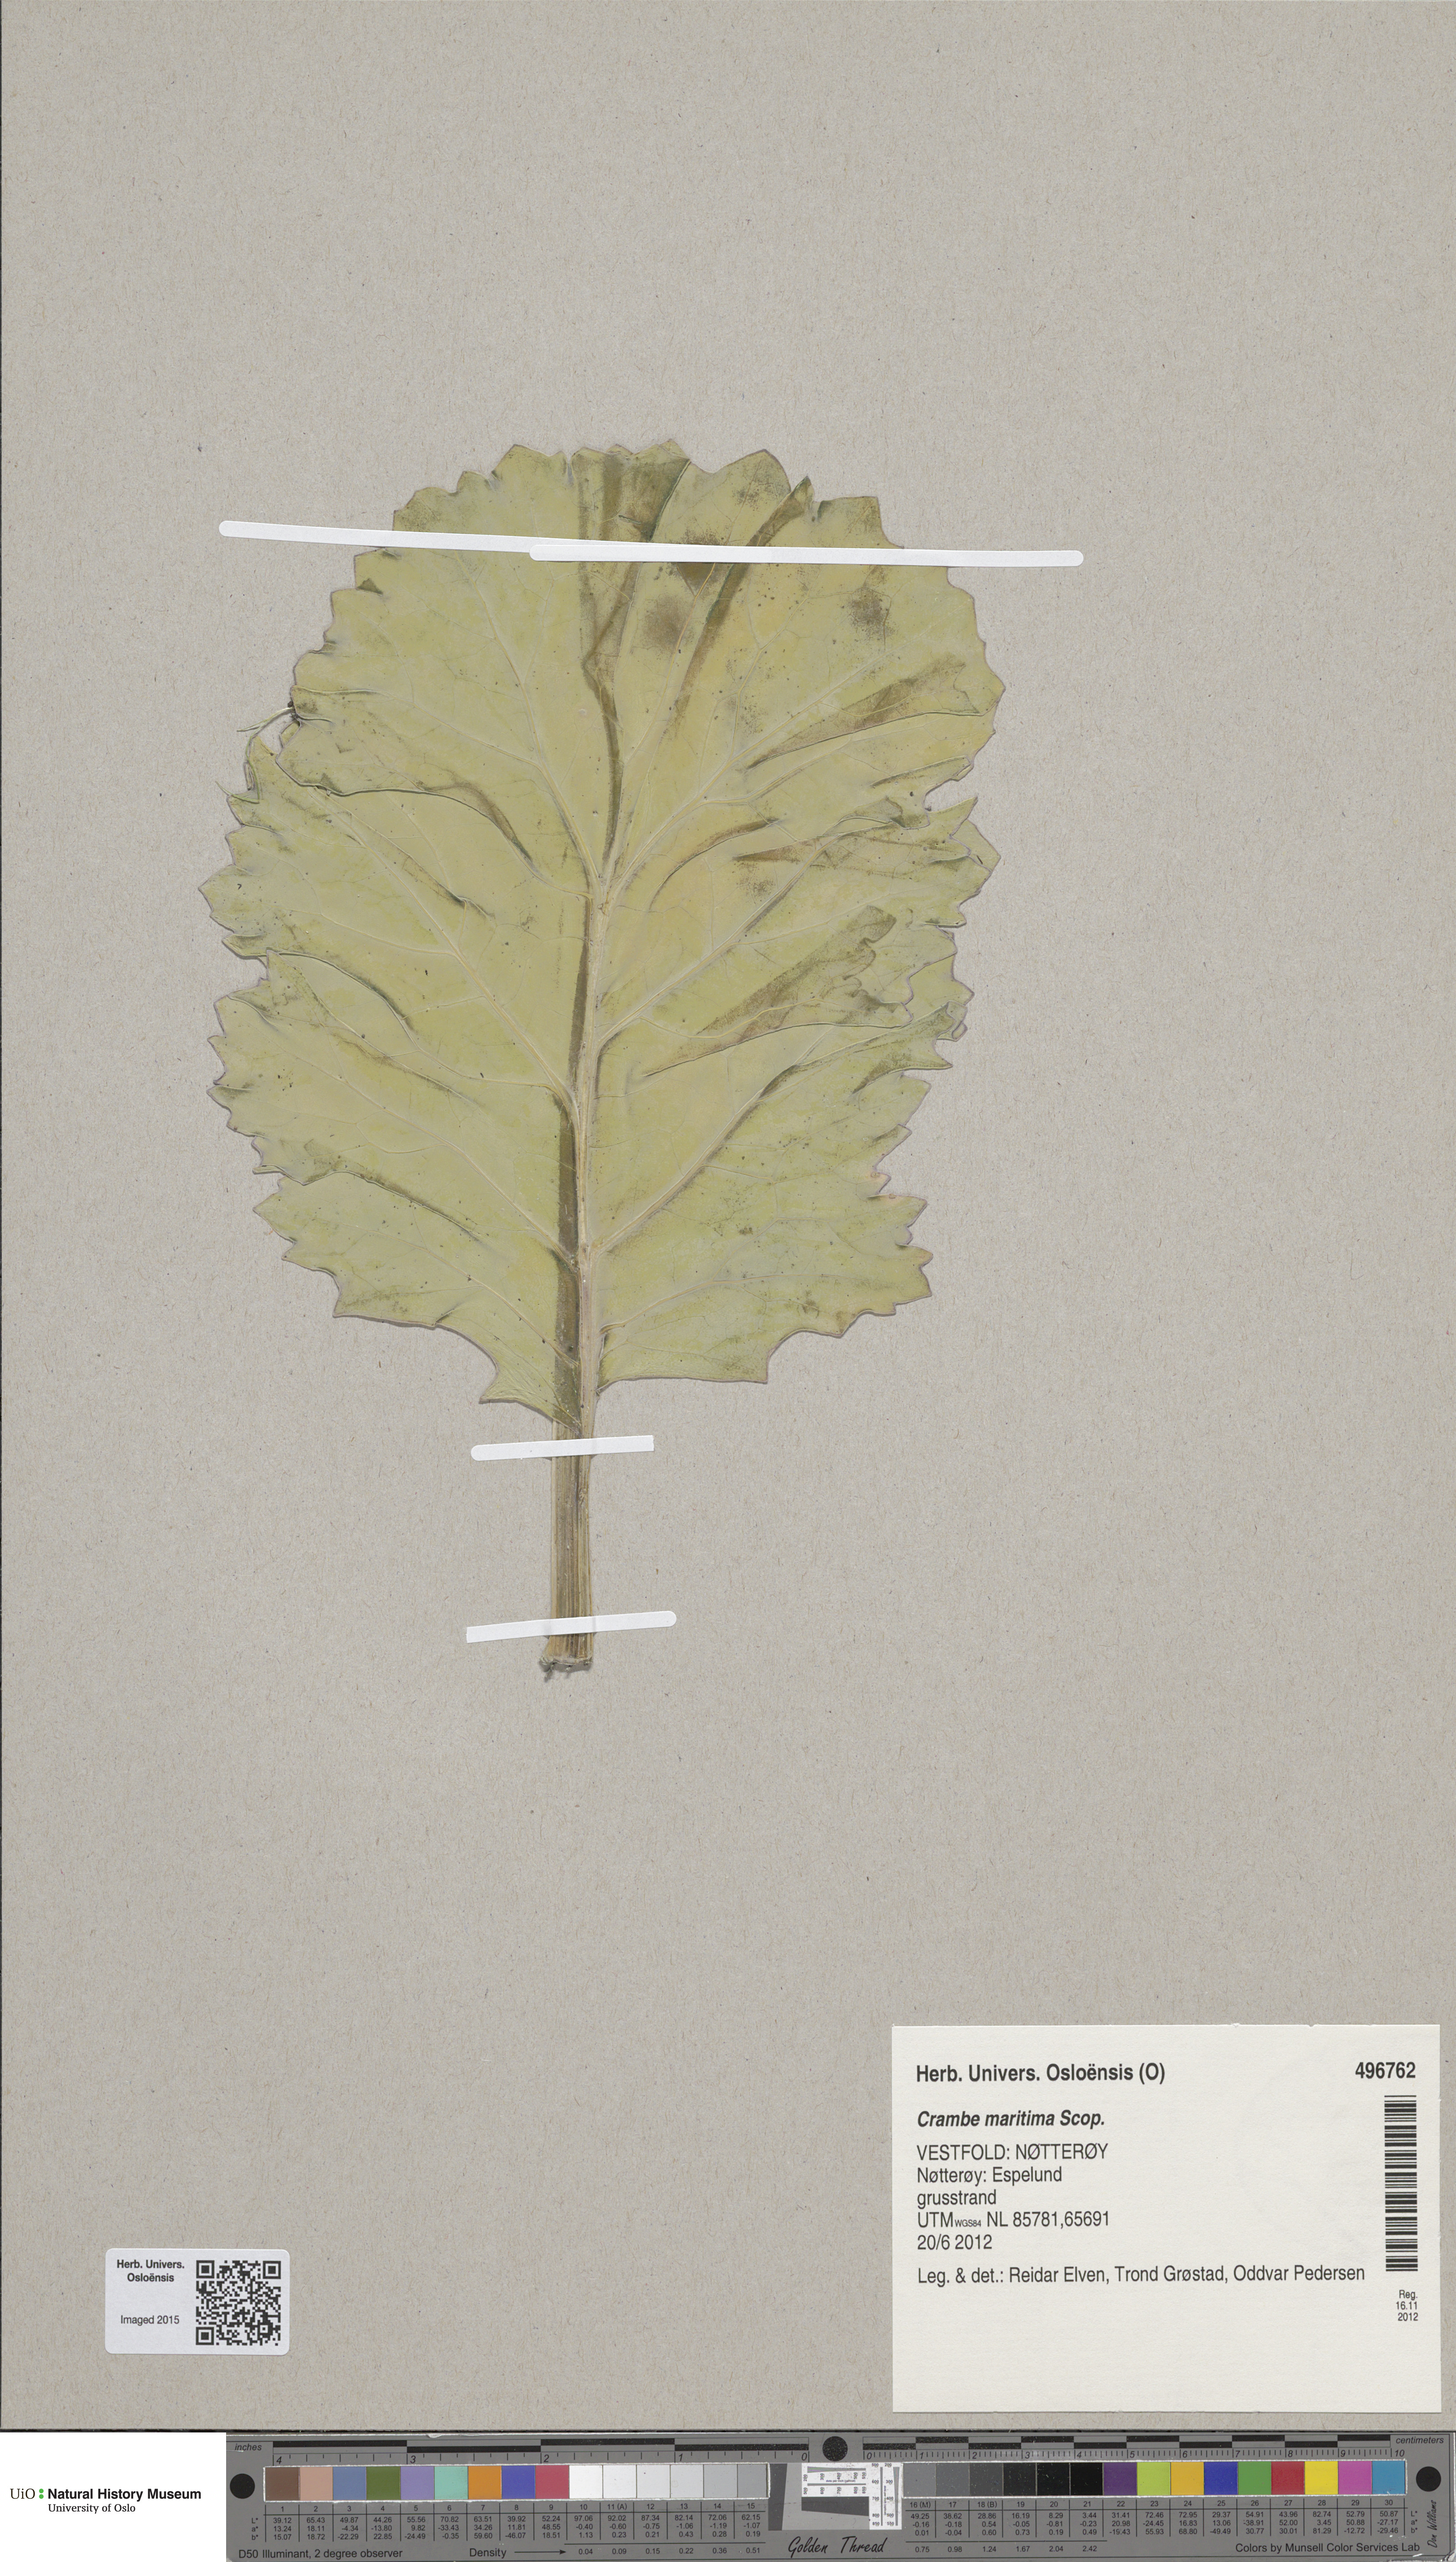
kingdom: Plantae
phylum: Tracheophyta
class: Magnoliopsida
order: Brassicales
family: Brassicaceae
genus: Crambe
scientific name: Crambe maritima
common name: Sea-kale
